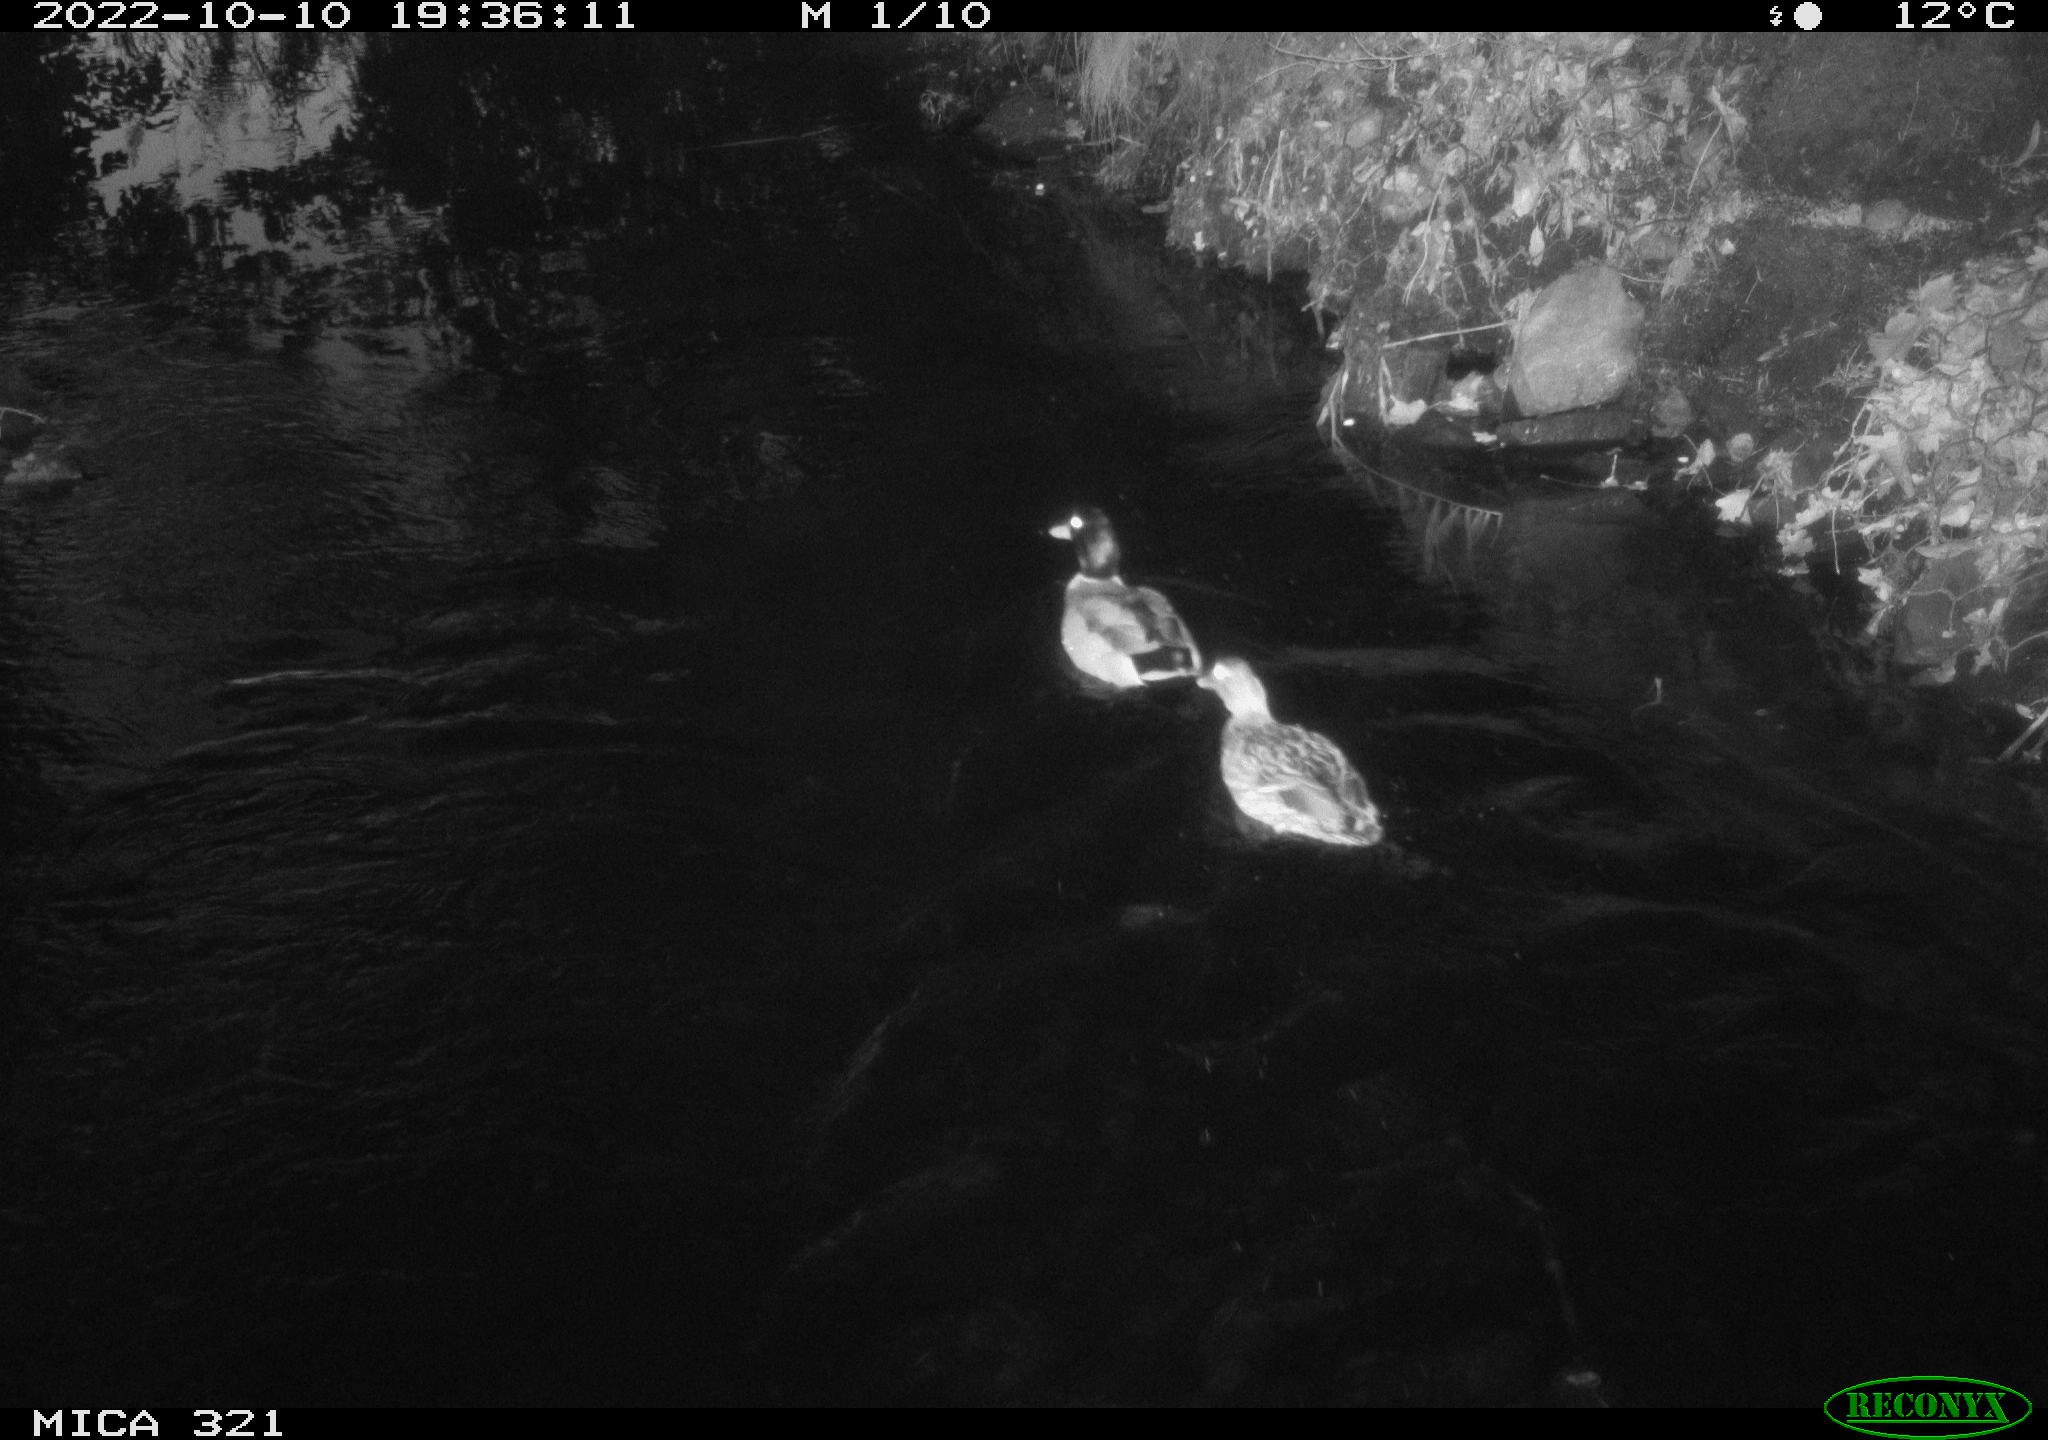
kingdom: Animalia
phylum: Chordata
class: Aves
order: Anseriformes
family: Anatidae
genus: Anas
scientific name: Anas
